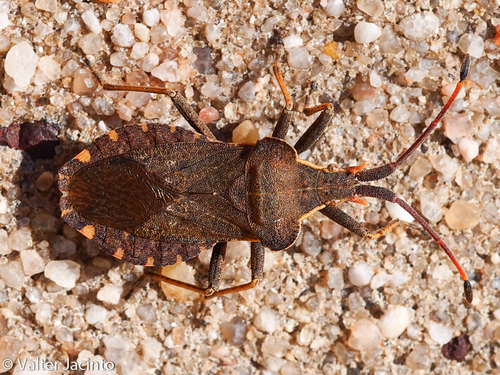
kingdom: Animalia
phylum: Arthropoda
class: Insecta
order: Hemiptera
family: Coreidae
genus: Enoplops
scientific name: Enoplops bos
